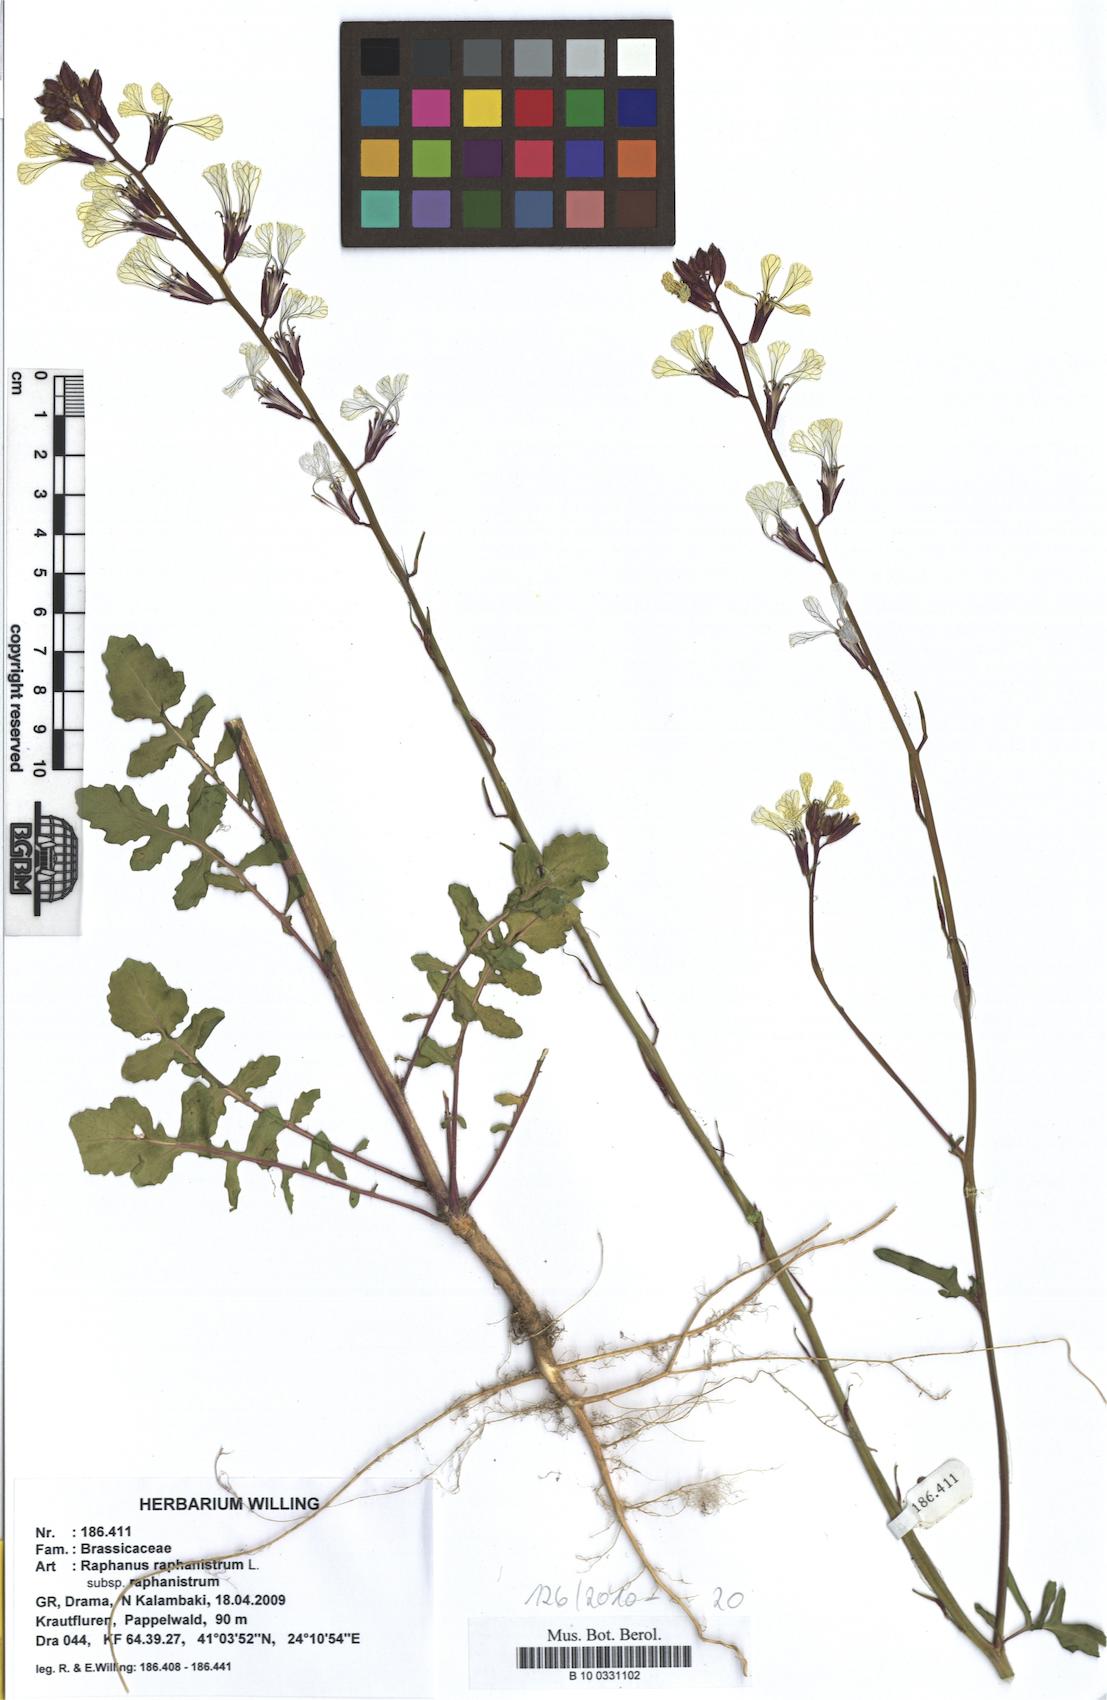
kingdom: Plantae
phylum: Tracheophyta
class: Magnoliopsida
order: Brassicales
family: Brassicaceae
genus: Raphanus
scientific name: Raphanus raphanistrum
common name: Wild radish
